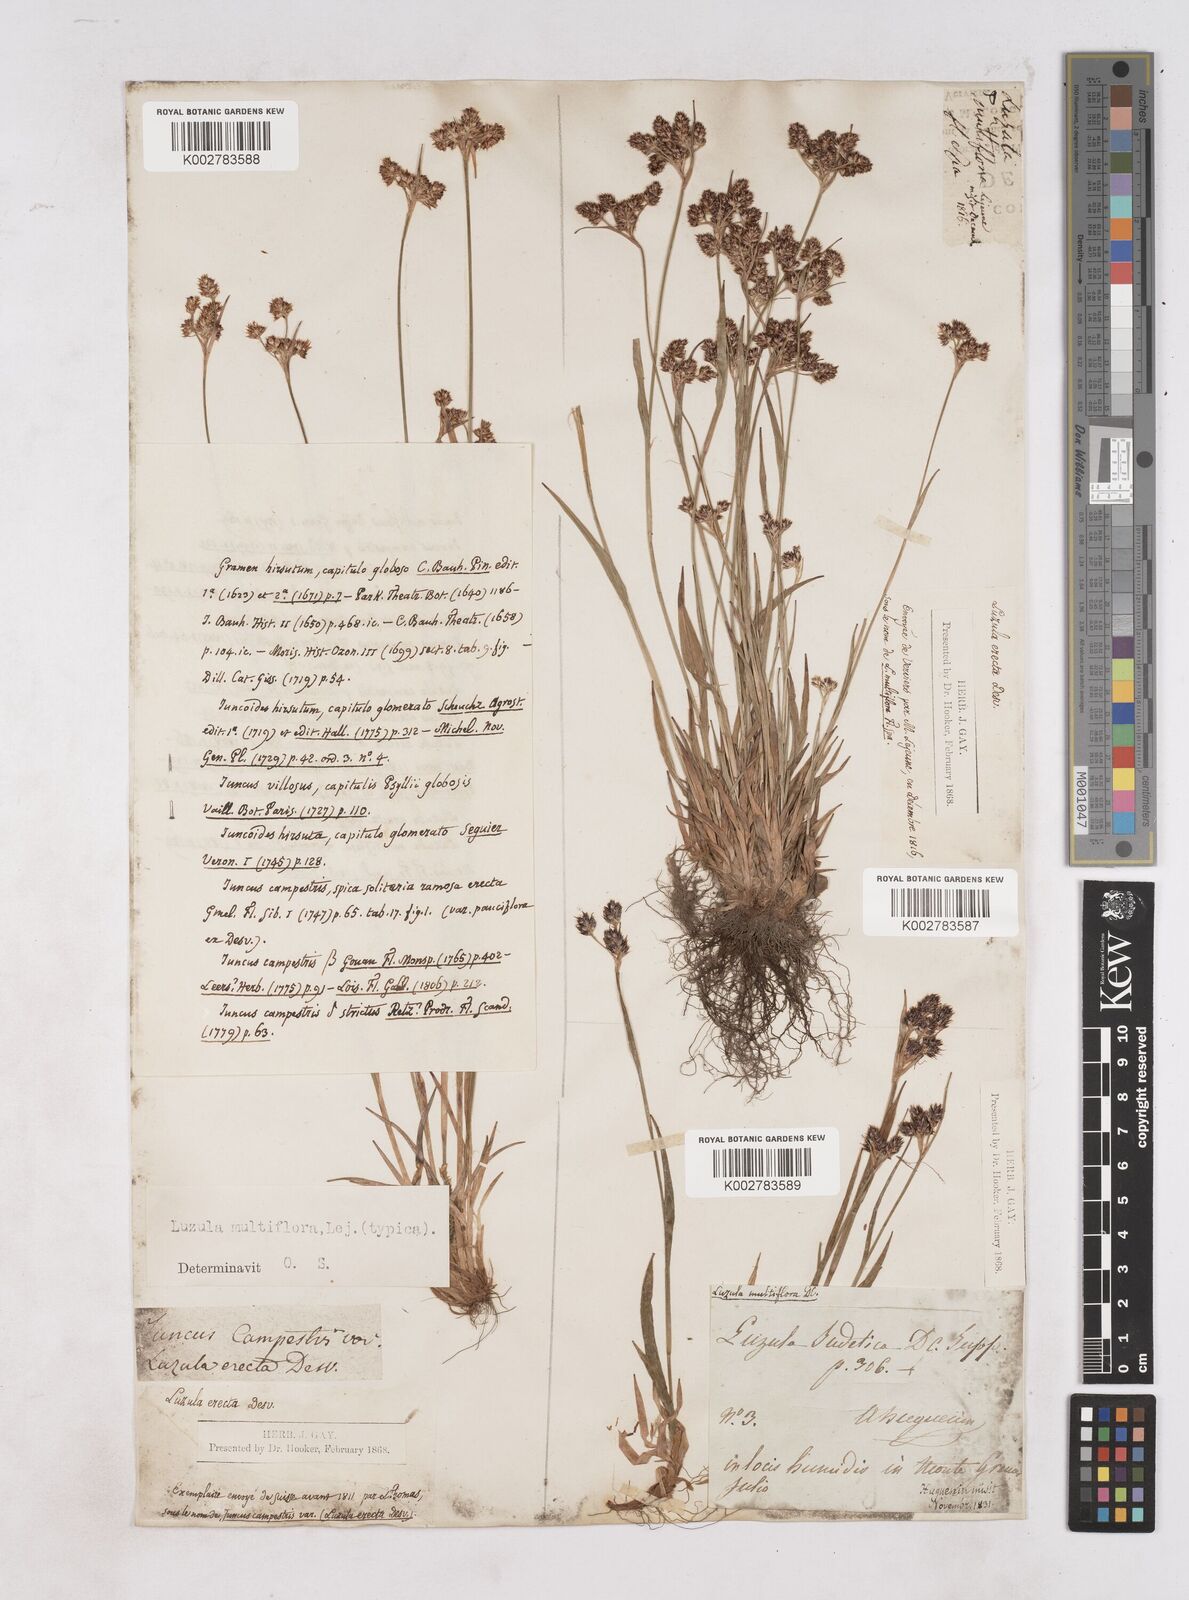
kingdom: Plantae
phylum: Tracheophyta
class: Liliopsida
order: Poales
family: Juncaceae
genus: Luzula
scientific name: Luzula
